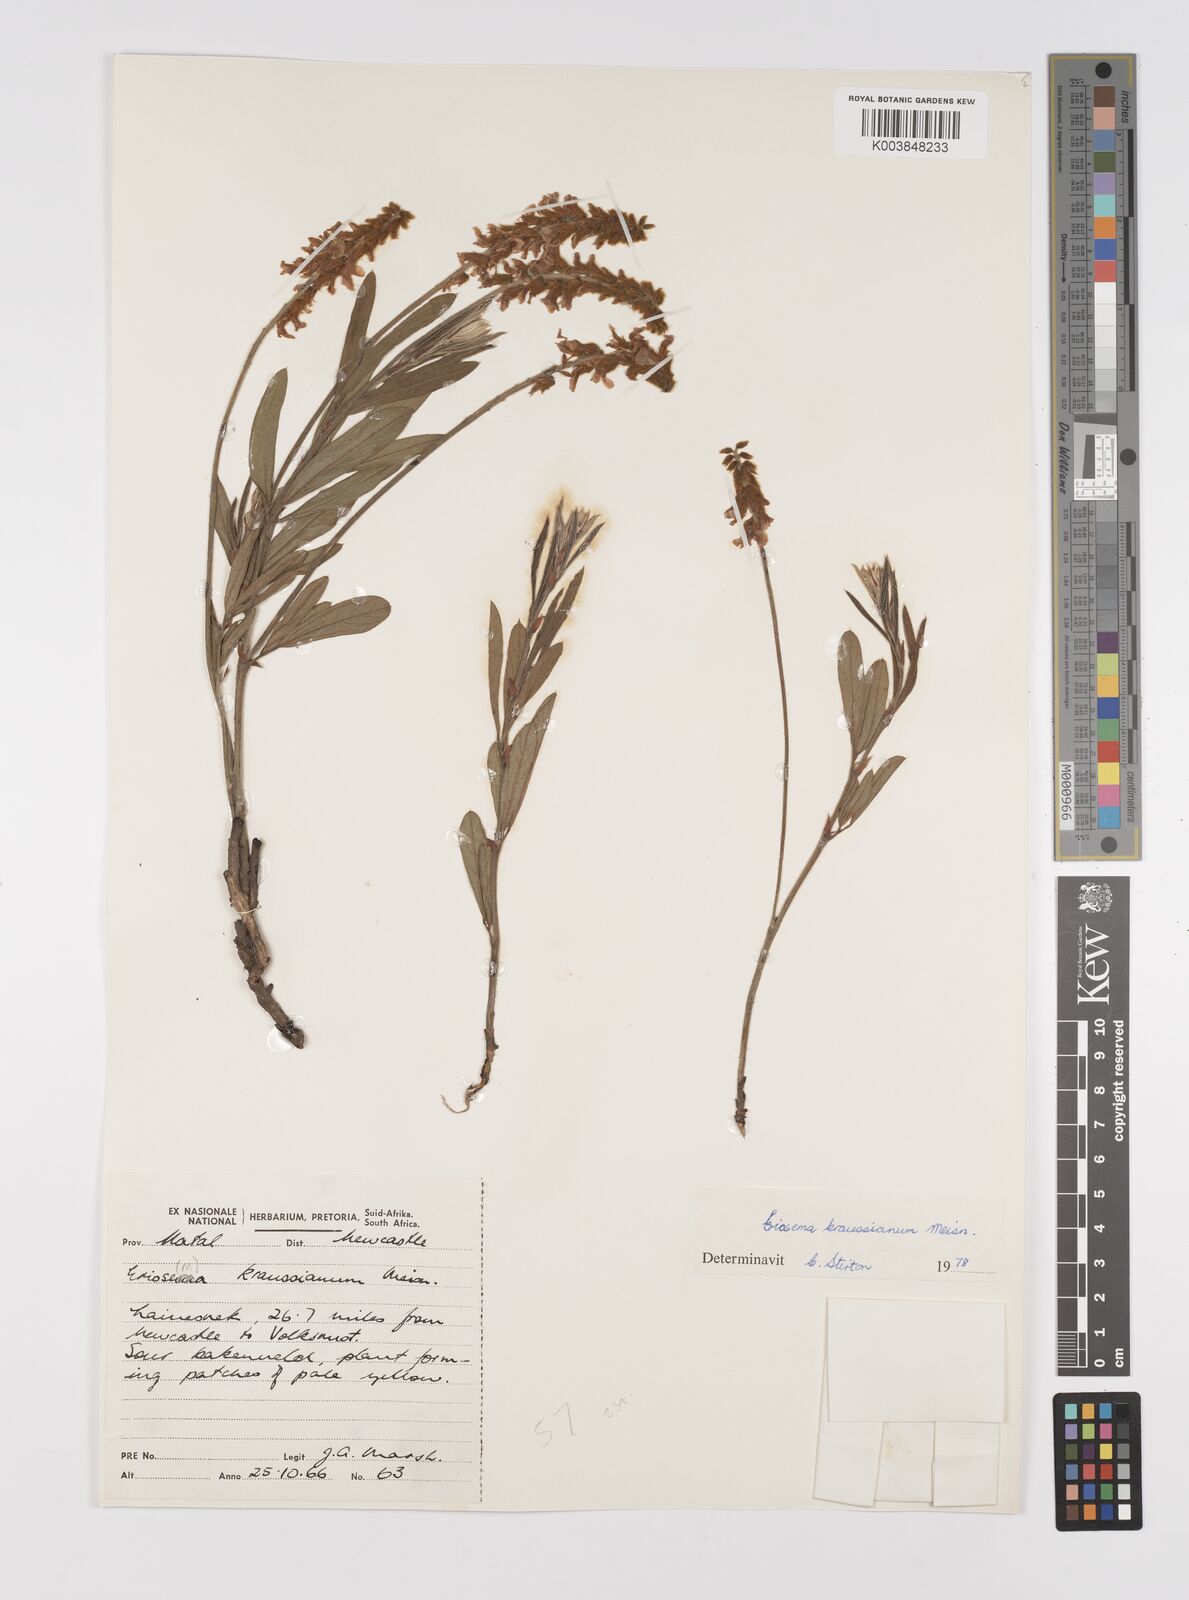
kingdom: Plantae
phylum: Tracheophyta
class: Magnoliopsida
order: Fabales
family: Fabaceae
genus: Eriosema
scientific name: Eriosema kraussianum
